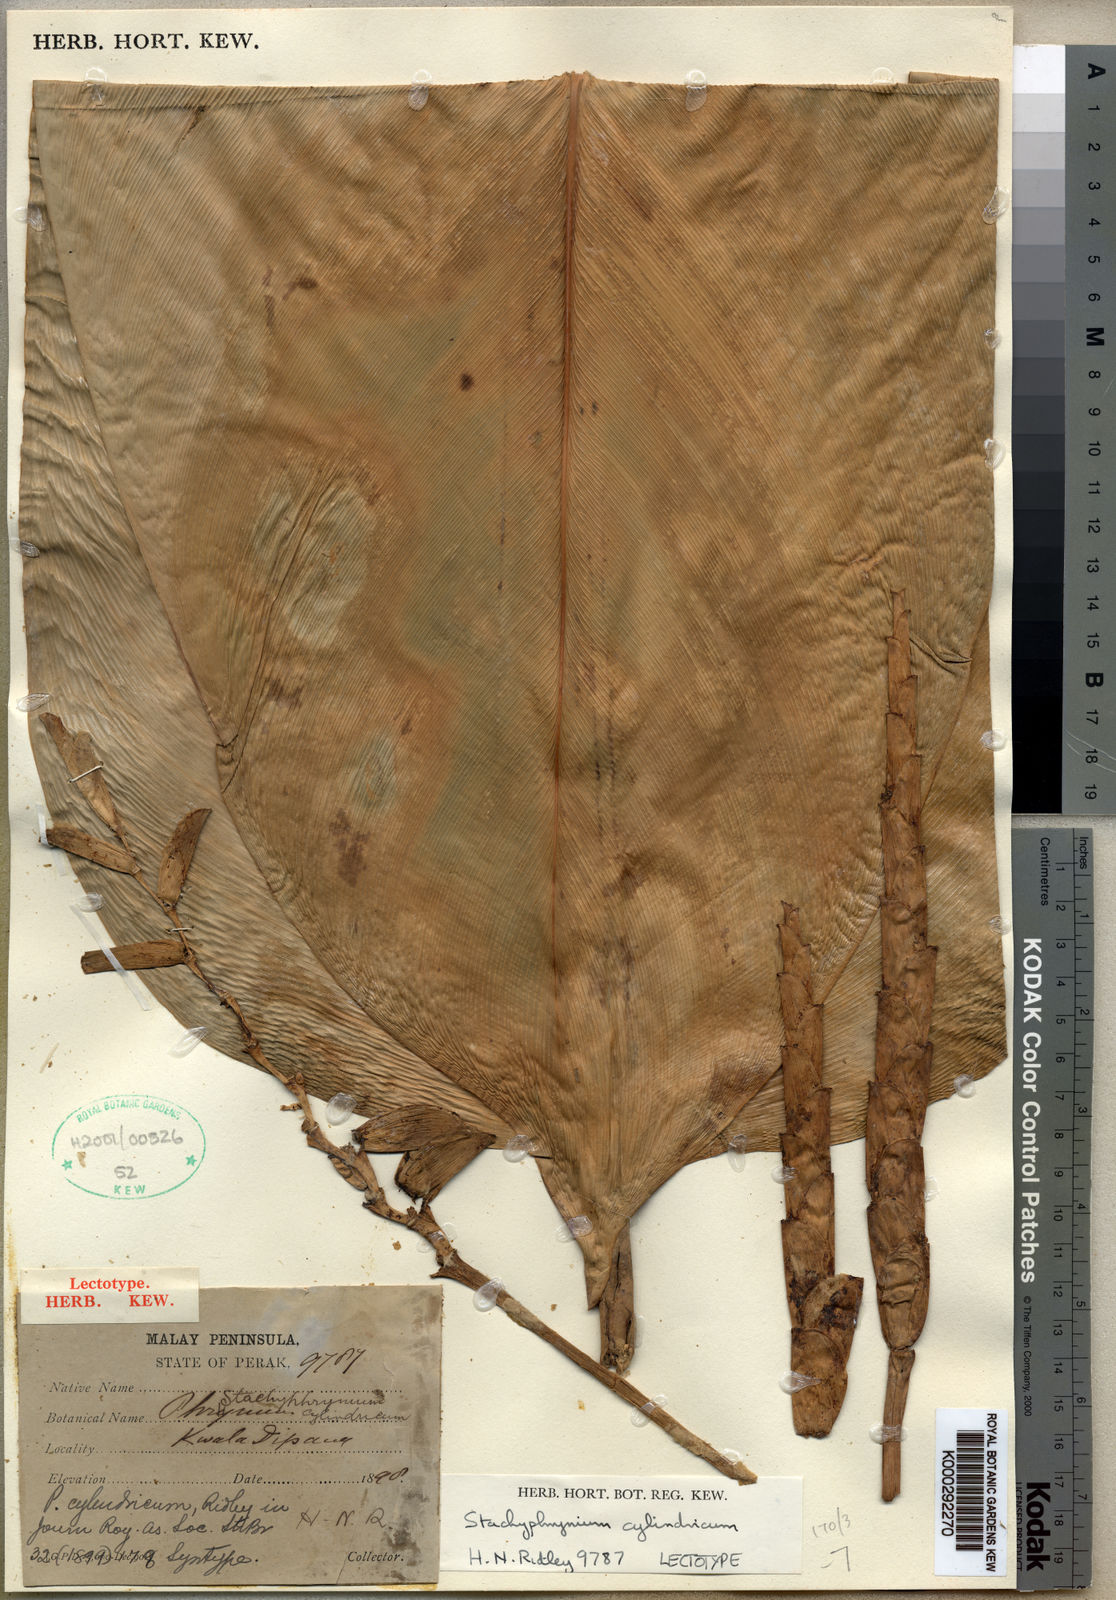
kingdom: Plantae
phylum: Tracheophyta
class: Liliopsida
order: Zingiberales
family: Marantaceae
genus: Stachyphrynium
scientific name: Stachyphrynium latifolium
